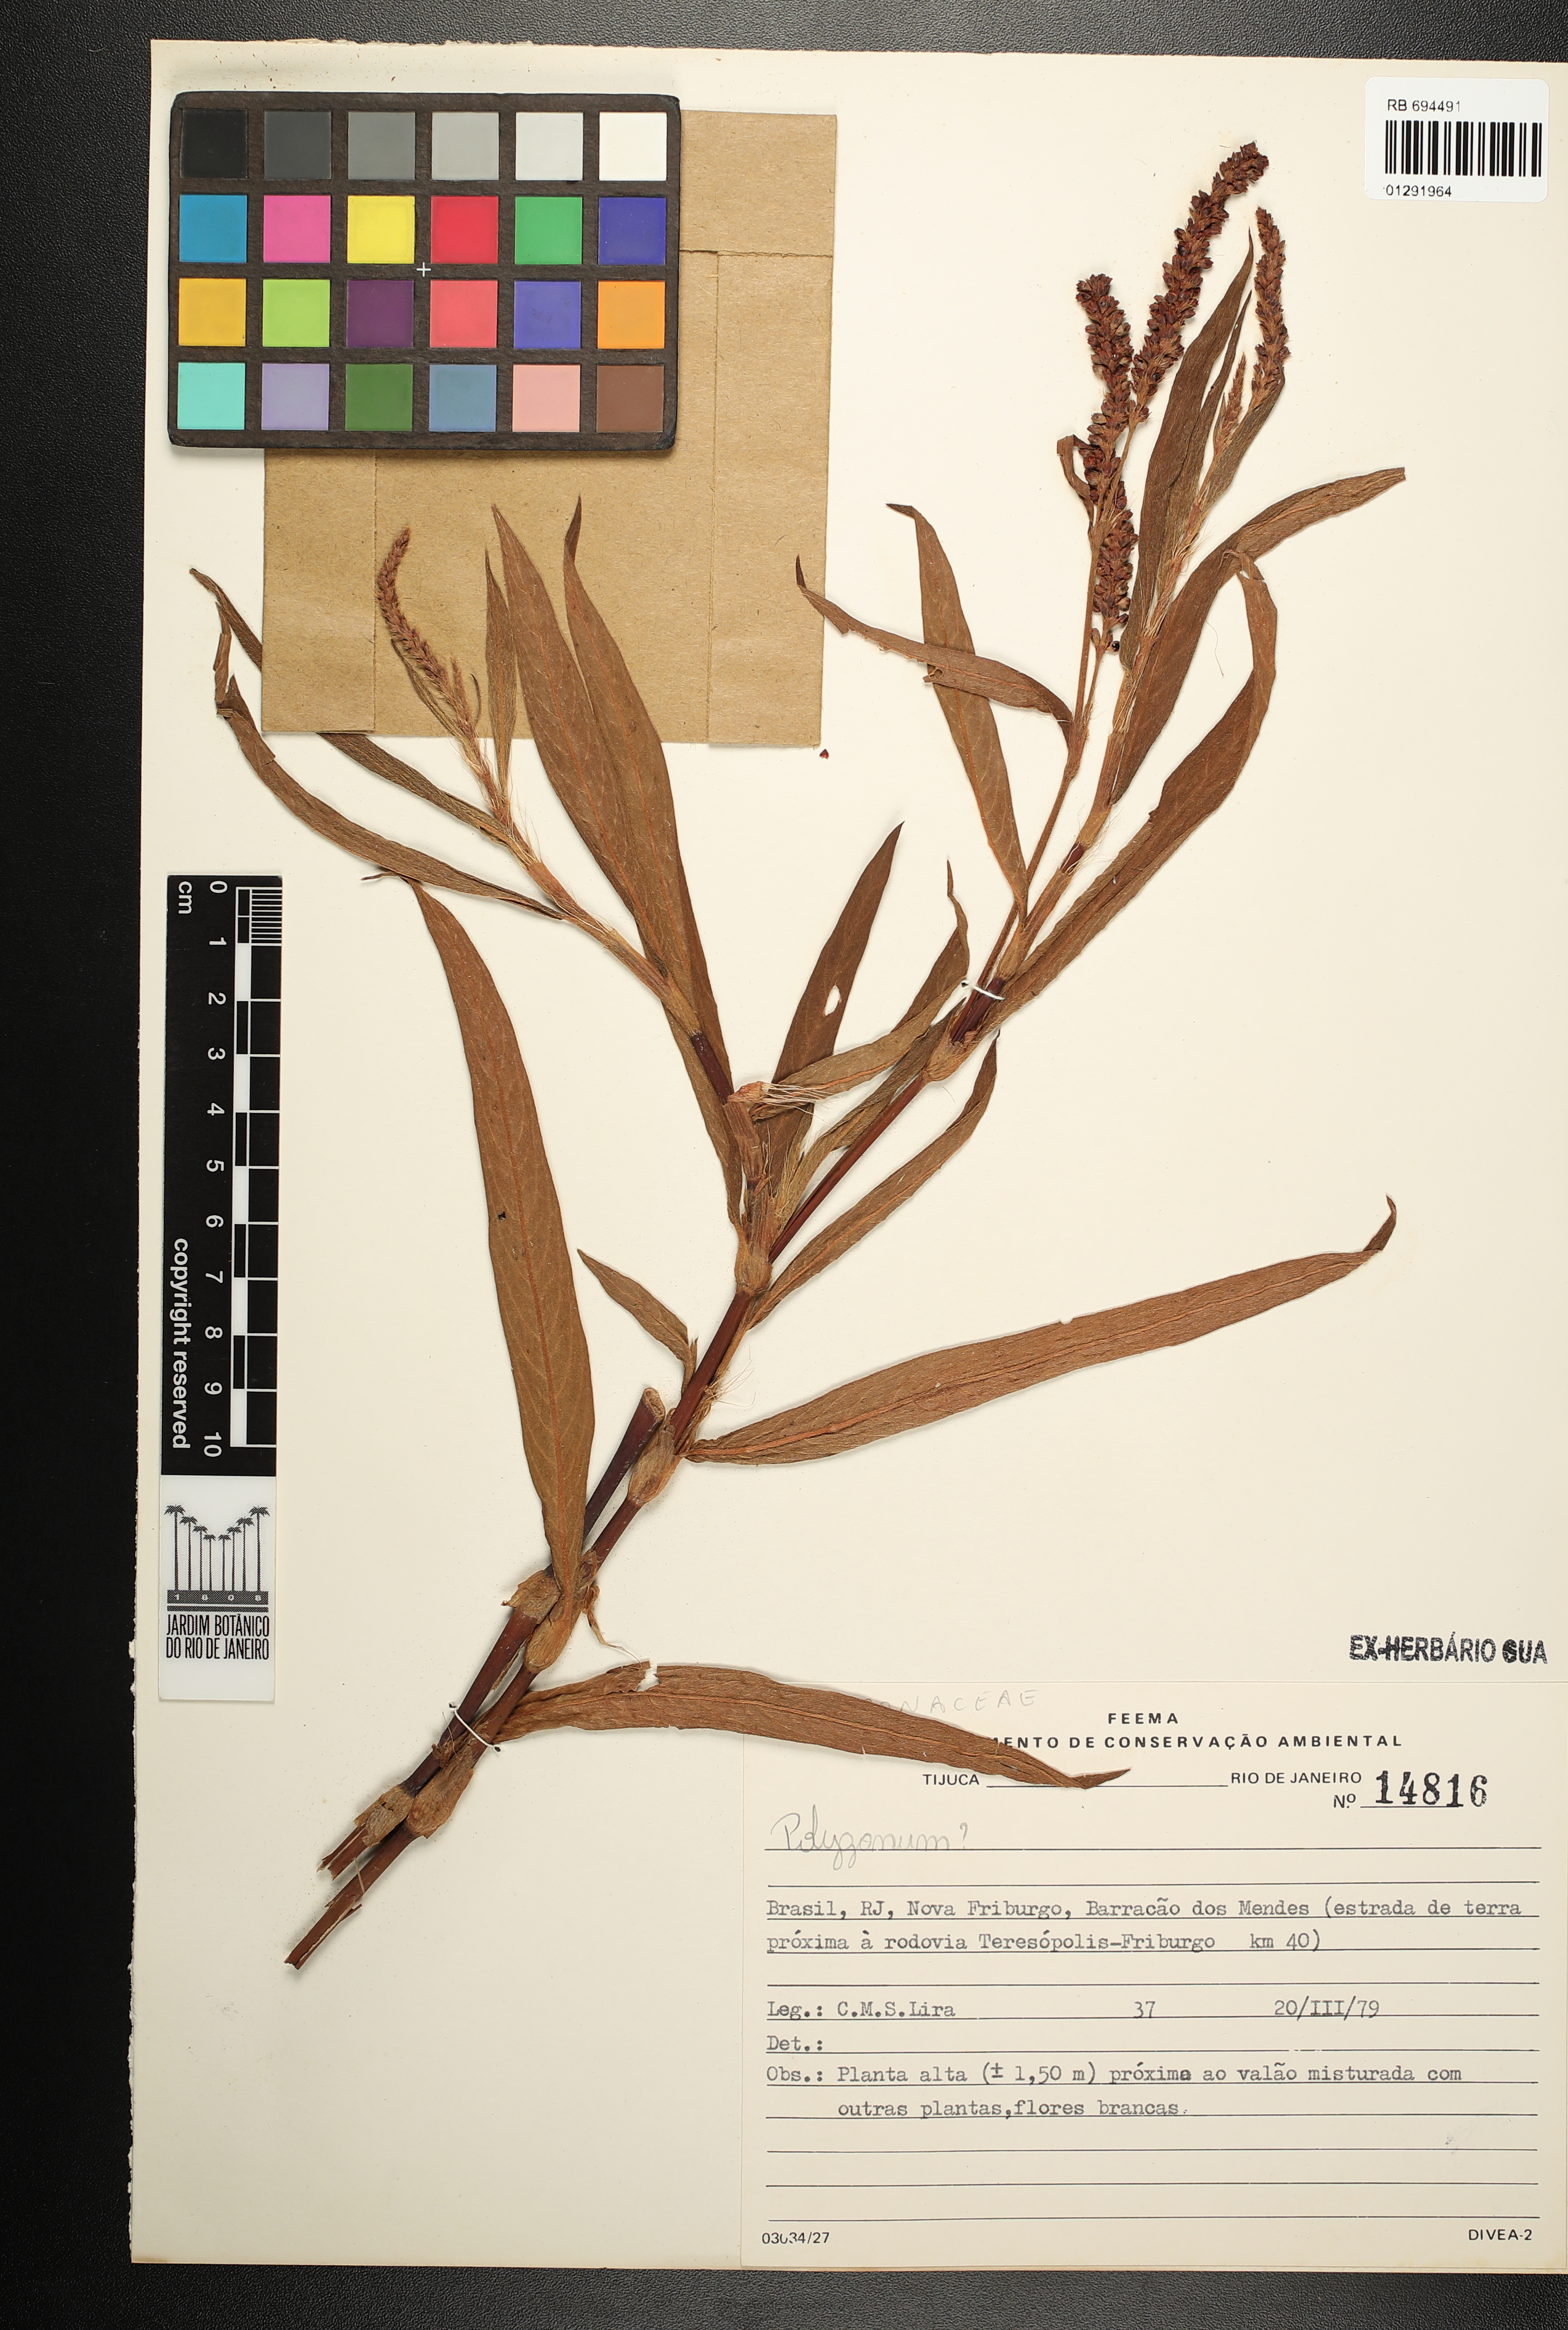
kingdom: Plantae
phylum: Tracheophyta
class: Magnoliopsida
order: Caryophyllales
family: Polygonaceae
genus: Polygonum
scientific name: Polygonum
